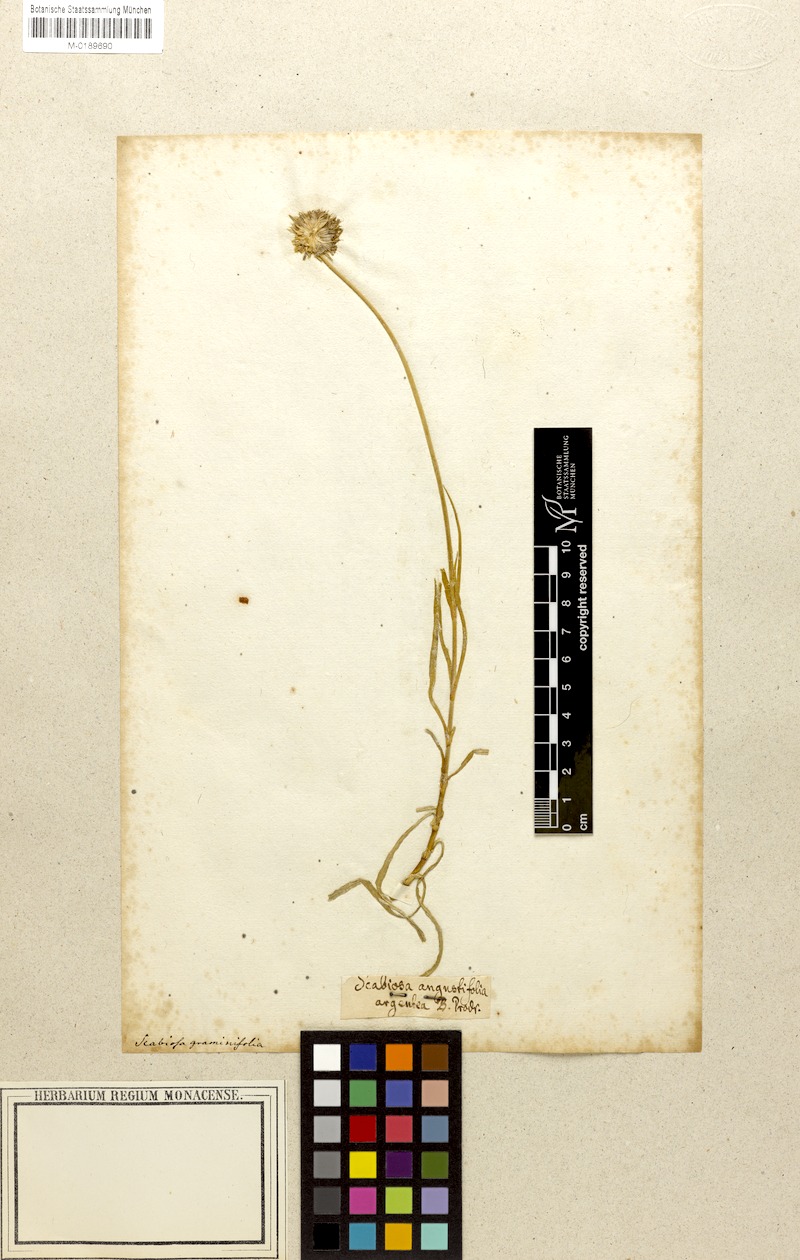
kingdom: Plantae
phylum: Tracheophyta
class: Magnoliopsida
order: Dipsacales
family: Caprifoliaceae
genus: Lomelosia
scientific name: Lomelosia graminifolia
